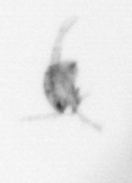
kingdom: Animalia
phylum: Arthropoda
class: Copepoda
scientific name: Copepoda
